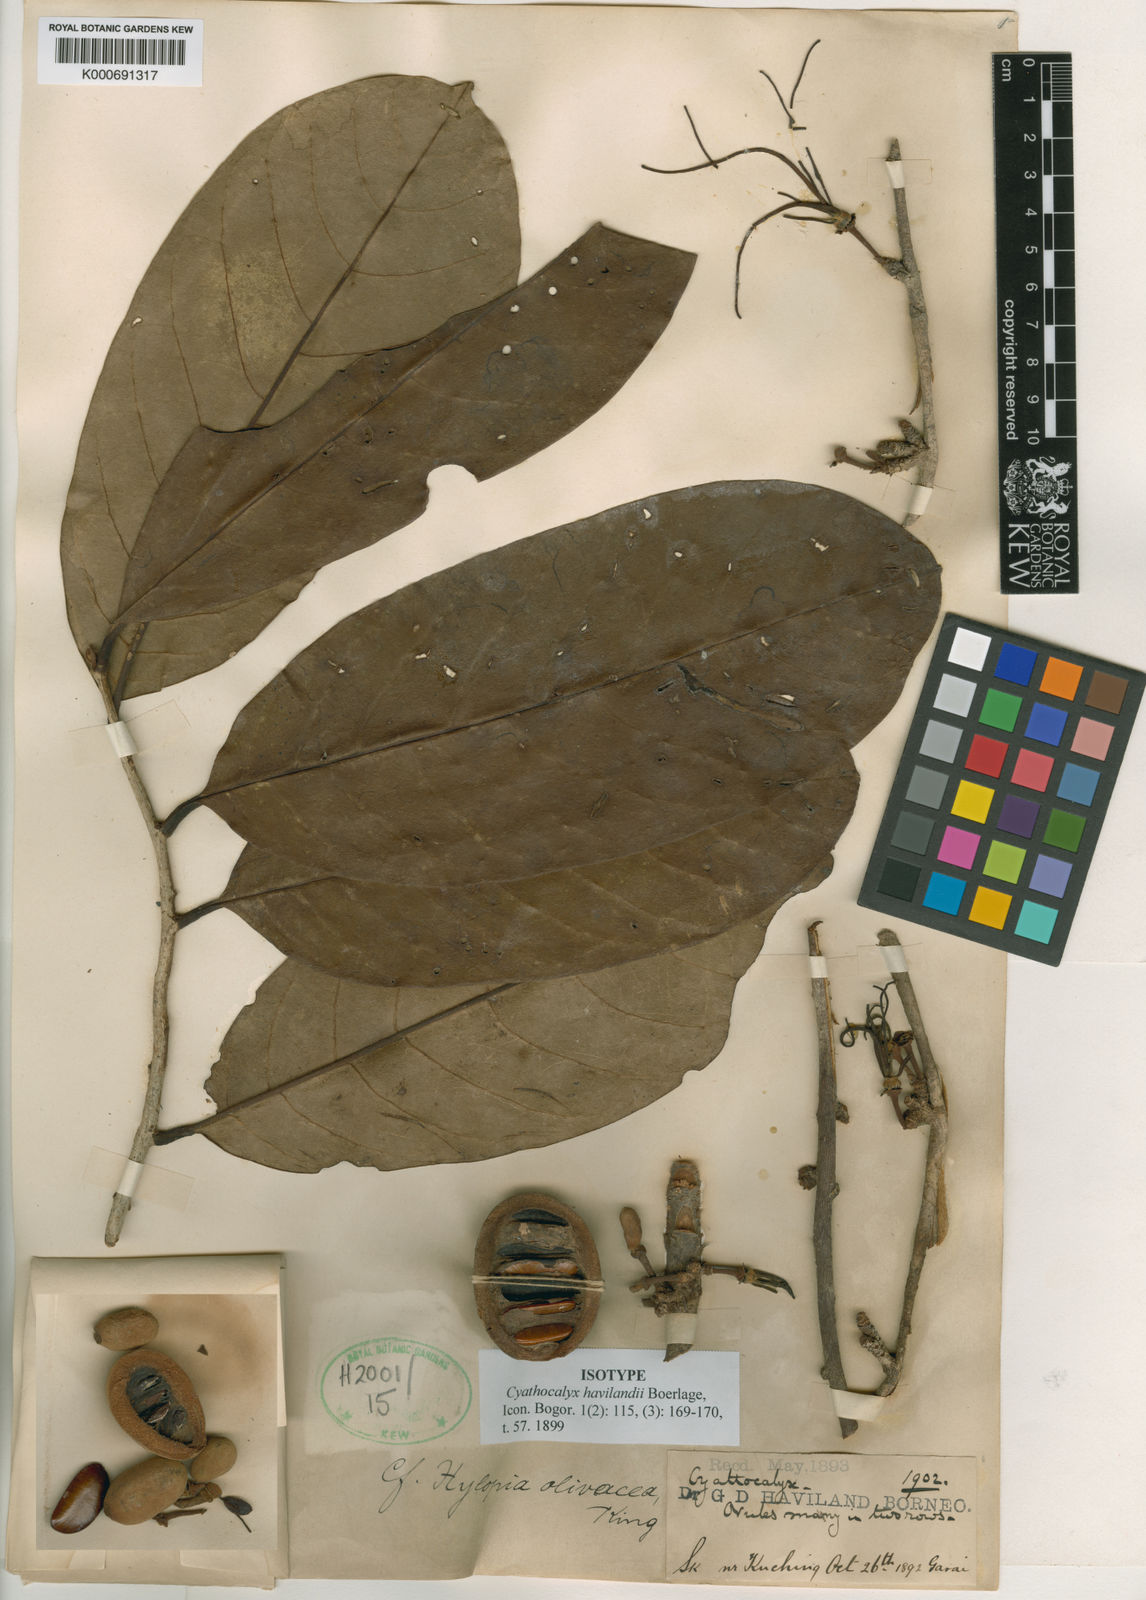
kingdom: Plantae
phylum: Tracheophyta
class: Magnoliopsida
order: Magnoliales
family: Annonaceae
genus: Drepananthus
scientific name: Drepananthus havilandii
